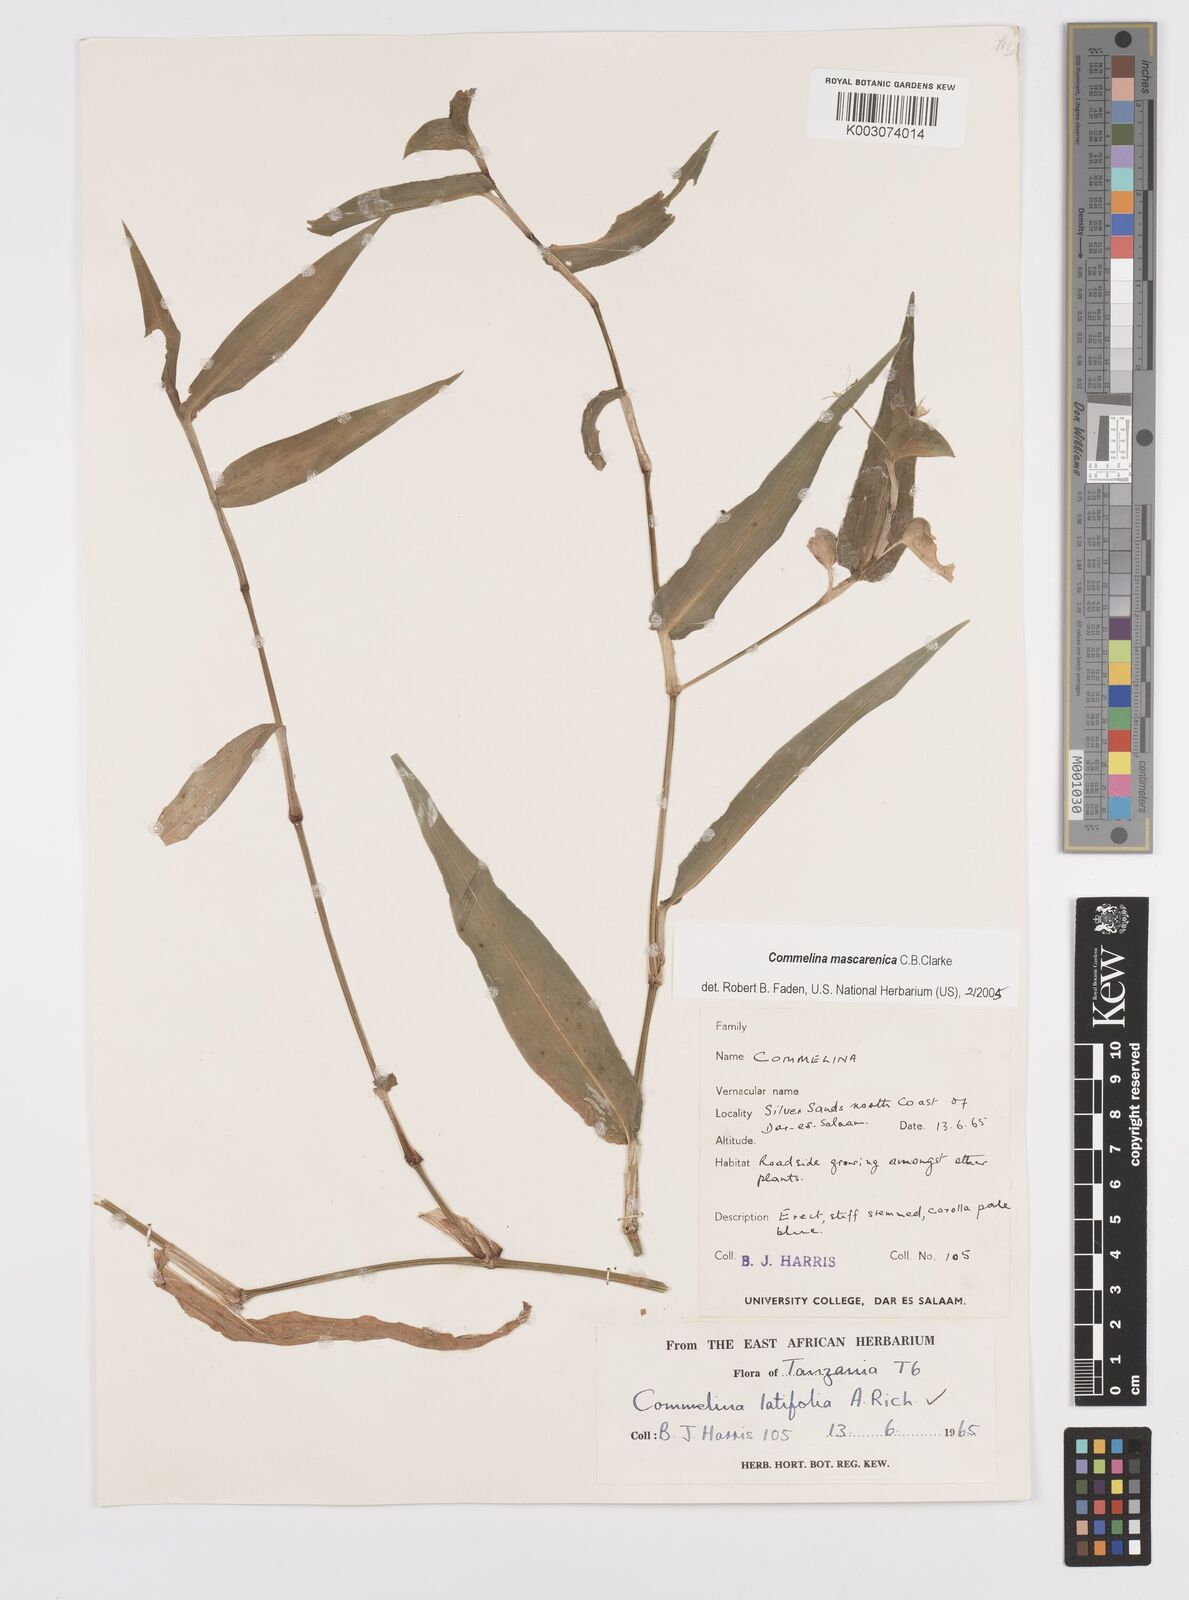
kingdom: Plantae
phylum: Tracheophyta
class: Liliopsida
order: Commelinales
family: Commelinaceae
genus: Commelina
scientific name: Commelina mascarenica
